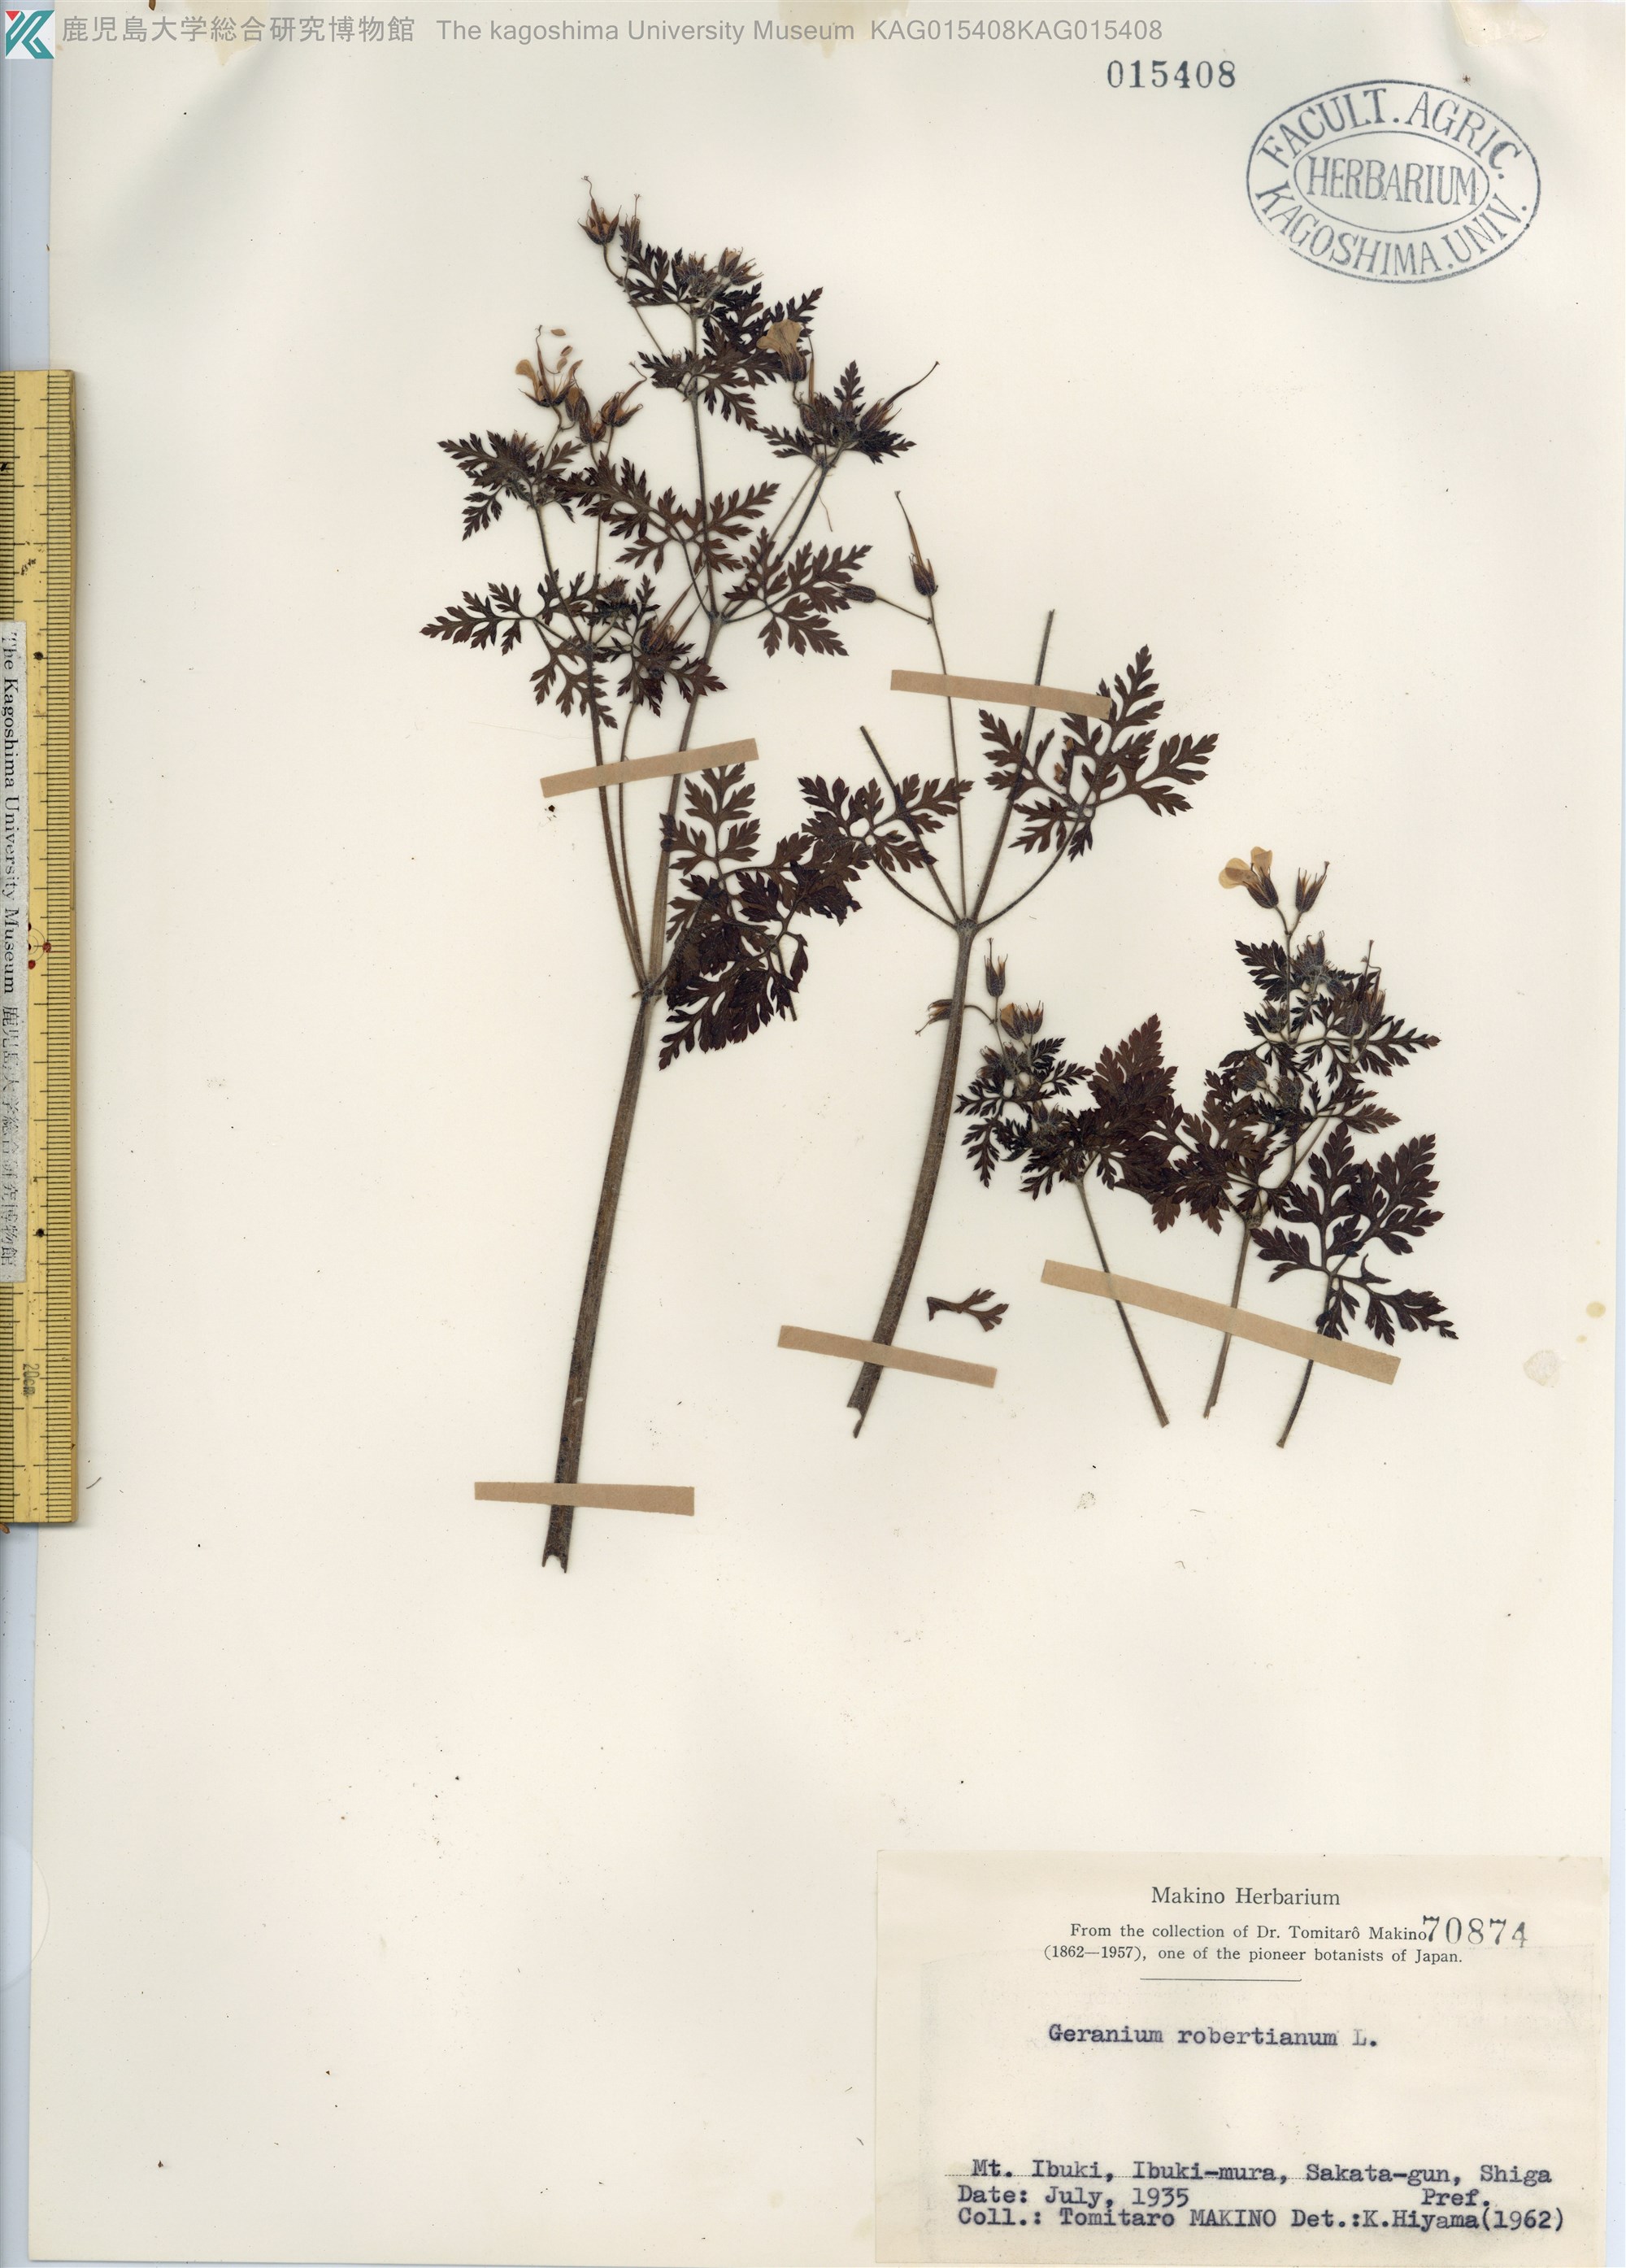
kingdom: Plantae
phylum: Tracheophyta
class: Magnoliopsida
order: Geraniales
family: Geraniaceae
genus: Geranium
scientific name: Geranium robertianum
